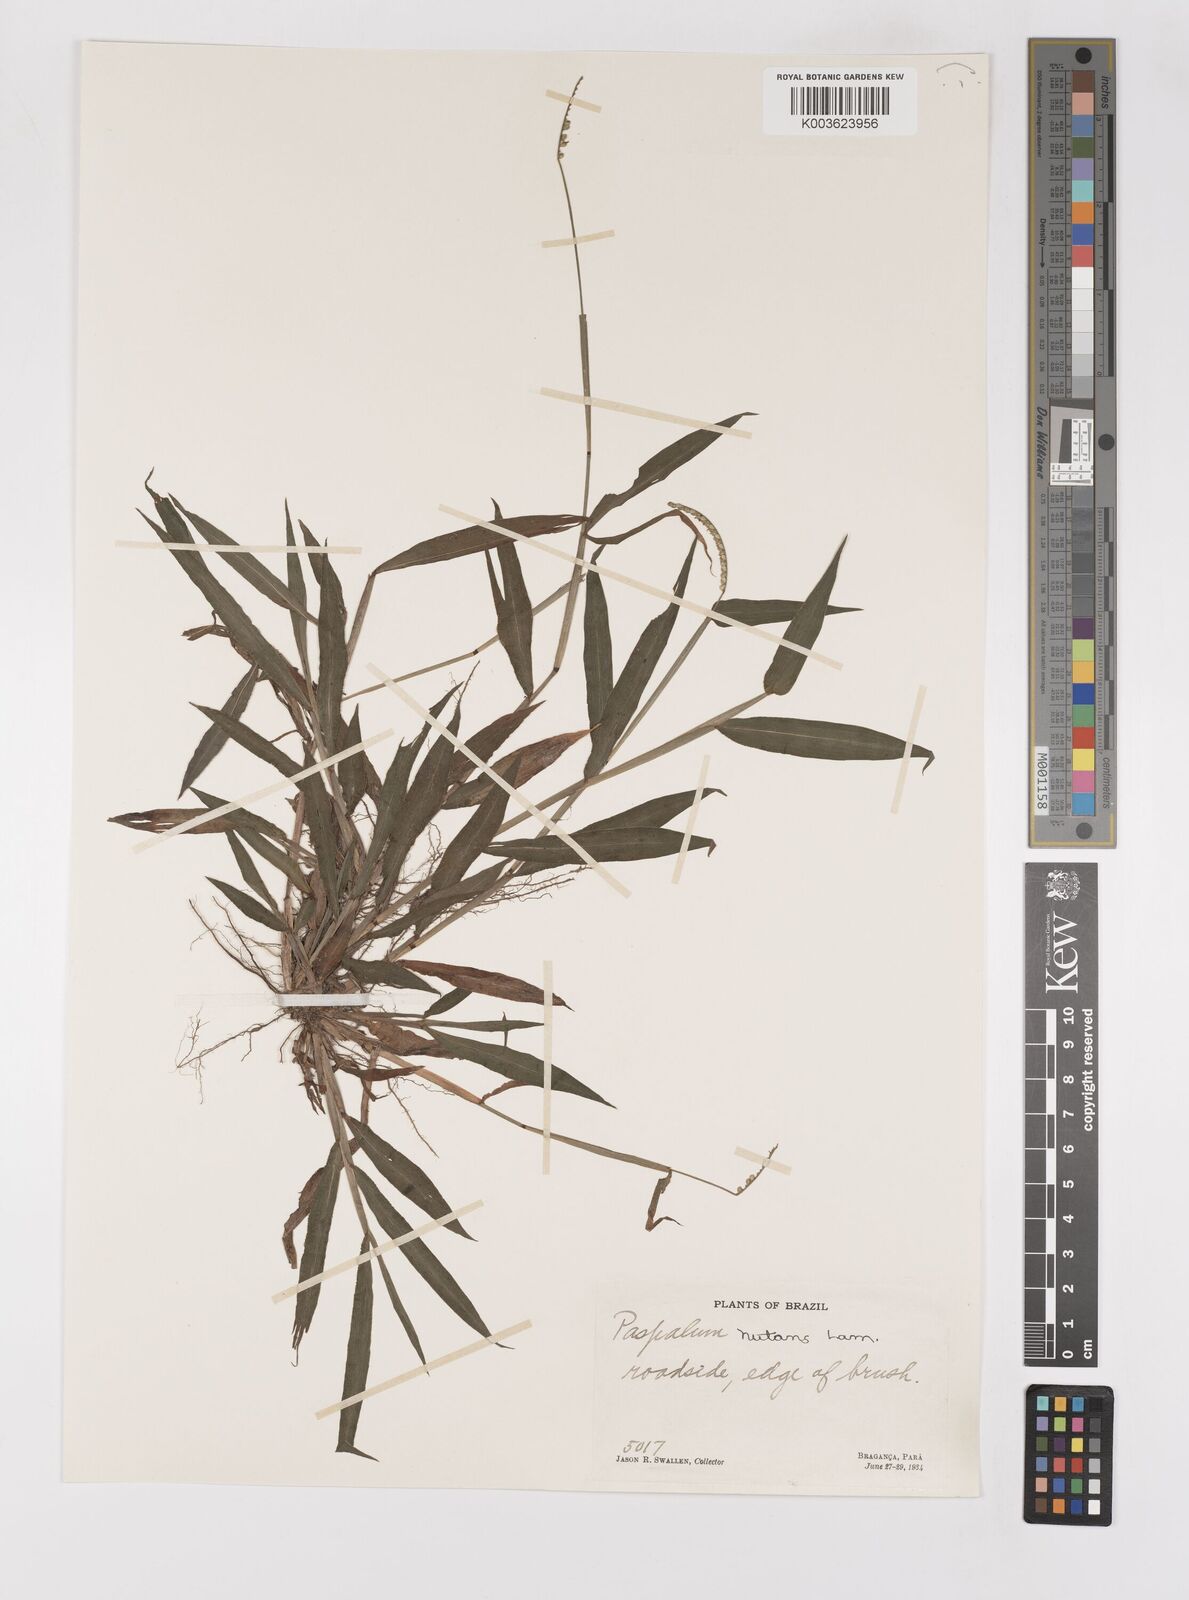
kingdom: Plantae
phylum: Tracheophyta
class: Liliopsida
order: Poales
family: Poaceae
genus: Paspalum
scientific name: Paspalum nutans
